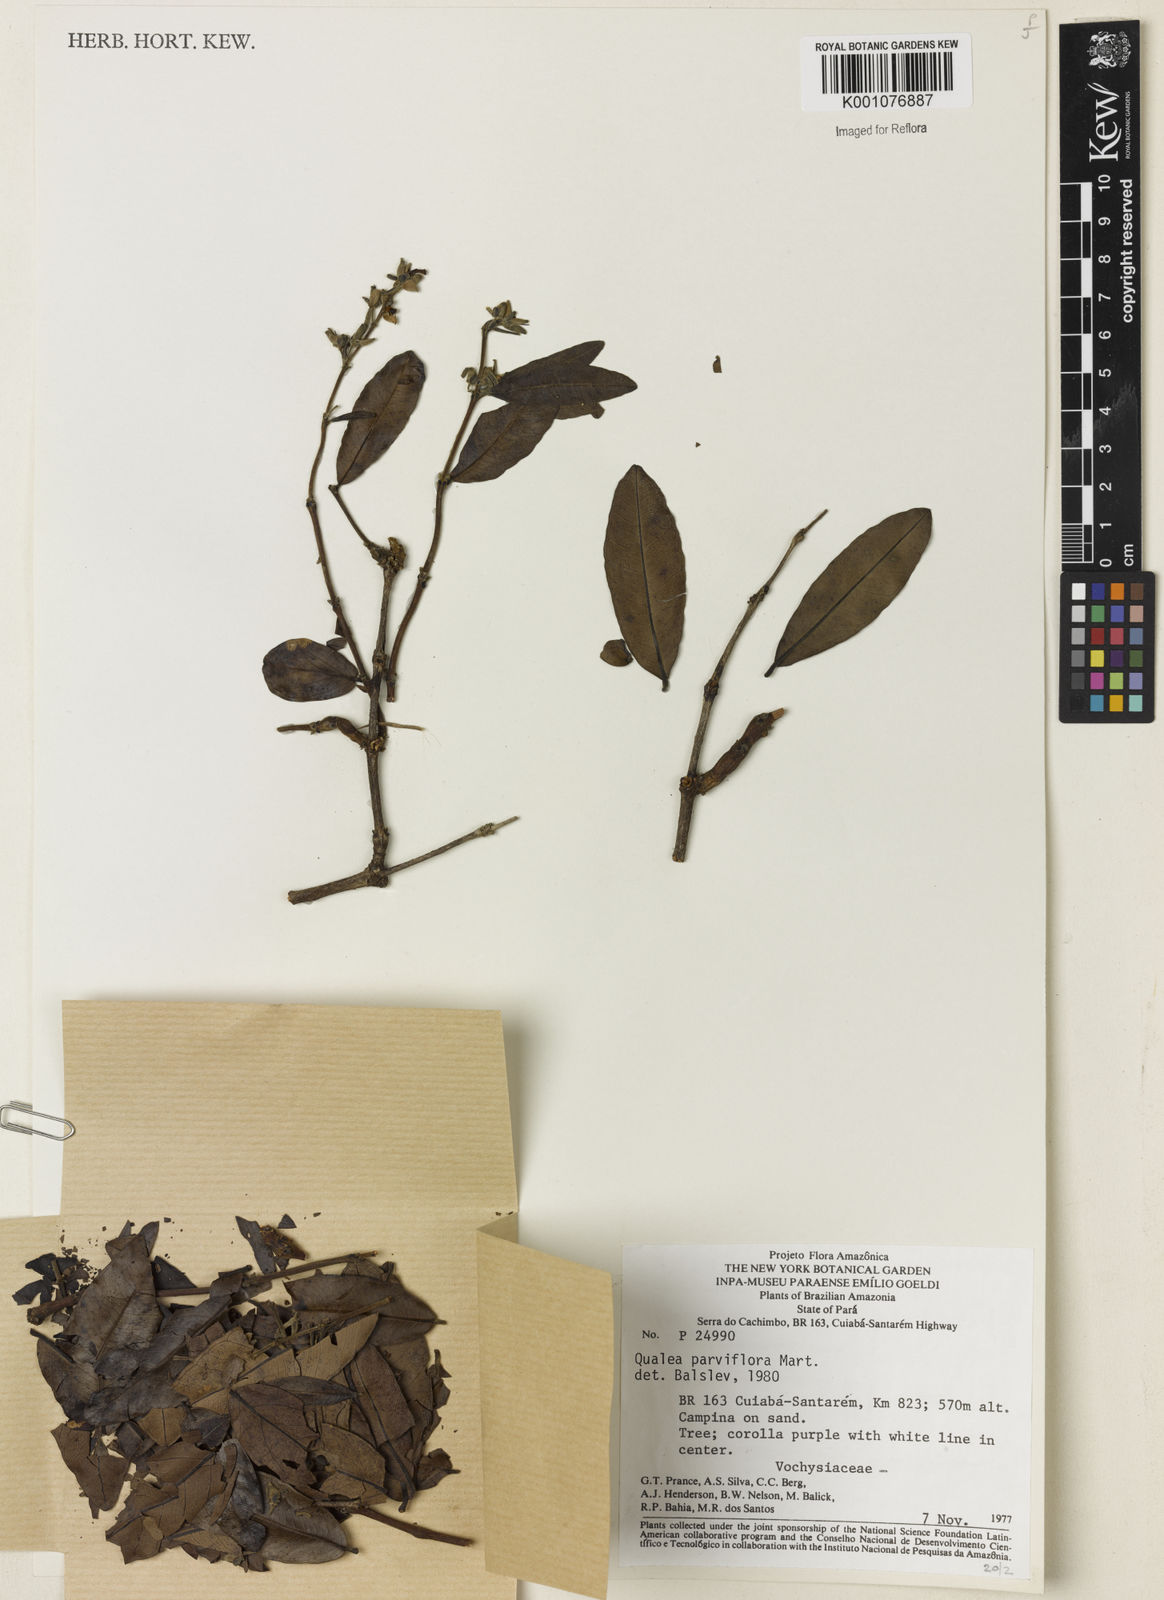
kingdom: Plantae
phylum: Tracheophyta
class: Magnoliopsida
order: Myrtales
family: Vochysiaceae
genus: Qualea
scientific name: Qualea parviflora
